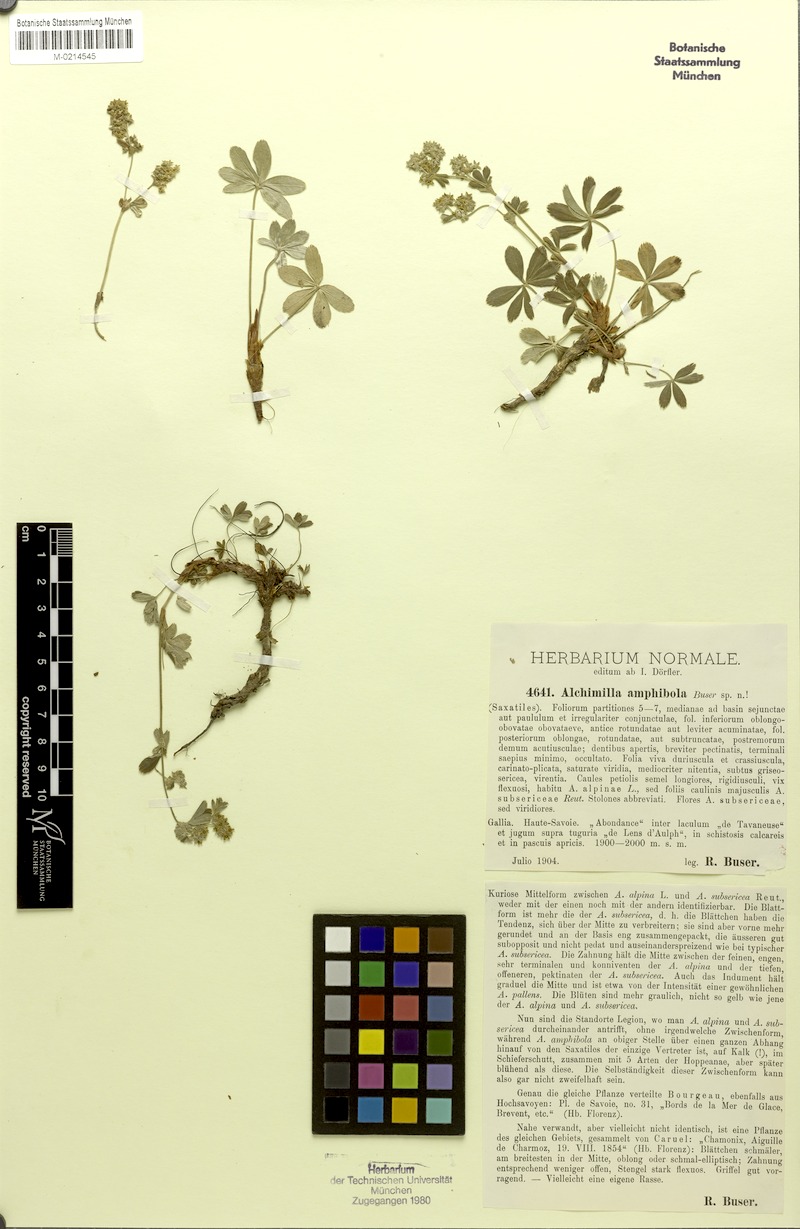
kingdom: Plantae
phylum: Tracheophyta
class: Magnoliopsida
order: Rosales
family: Rosaceae
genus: Alchemilla
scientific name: Alchemilla amphibola
